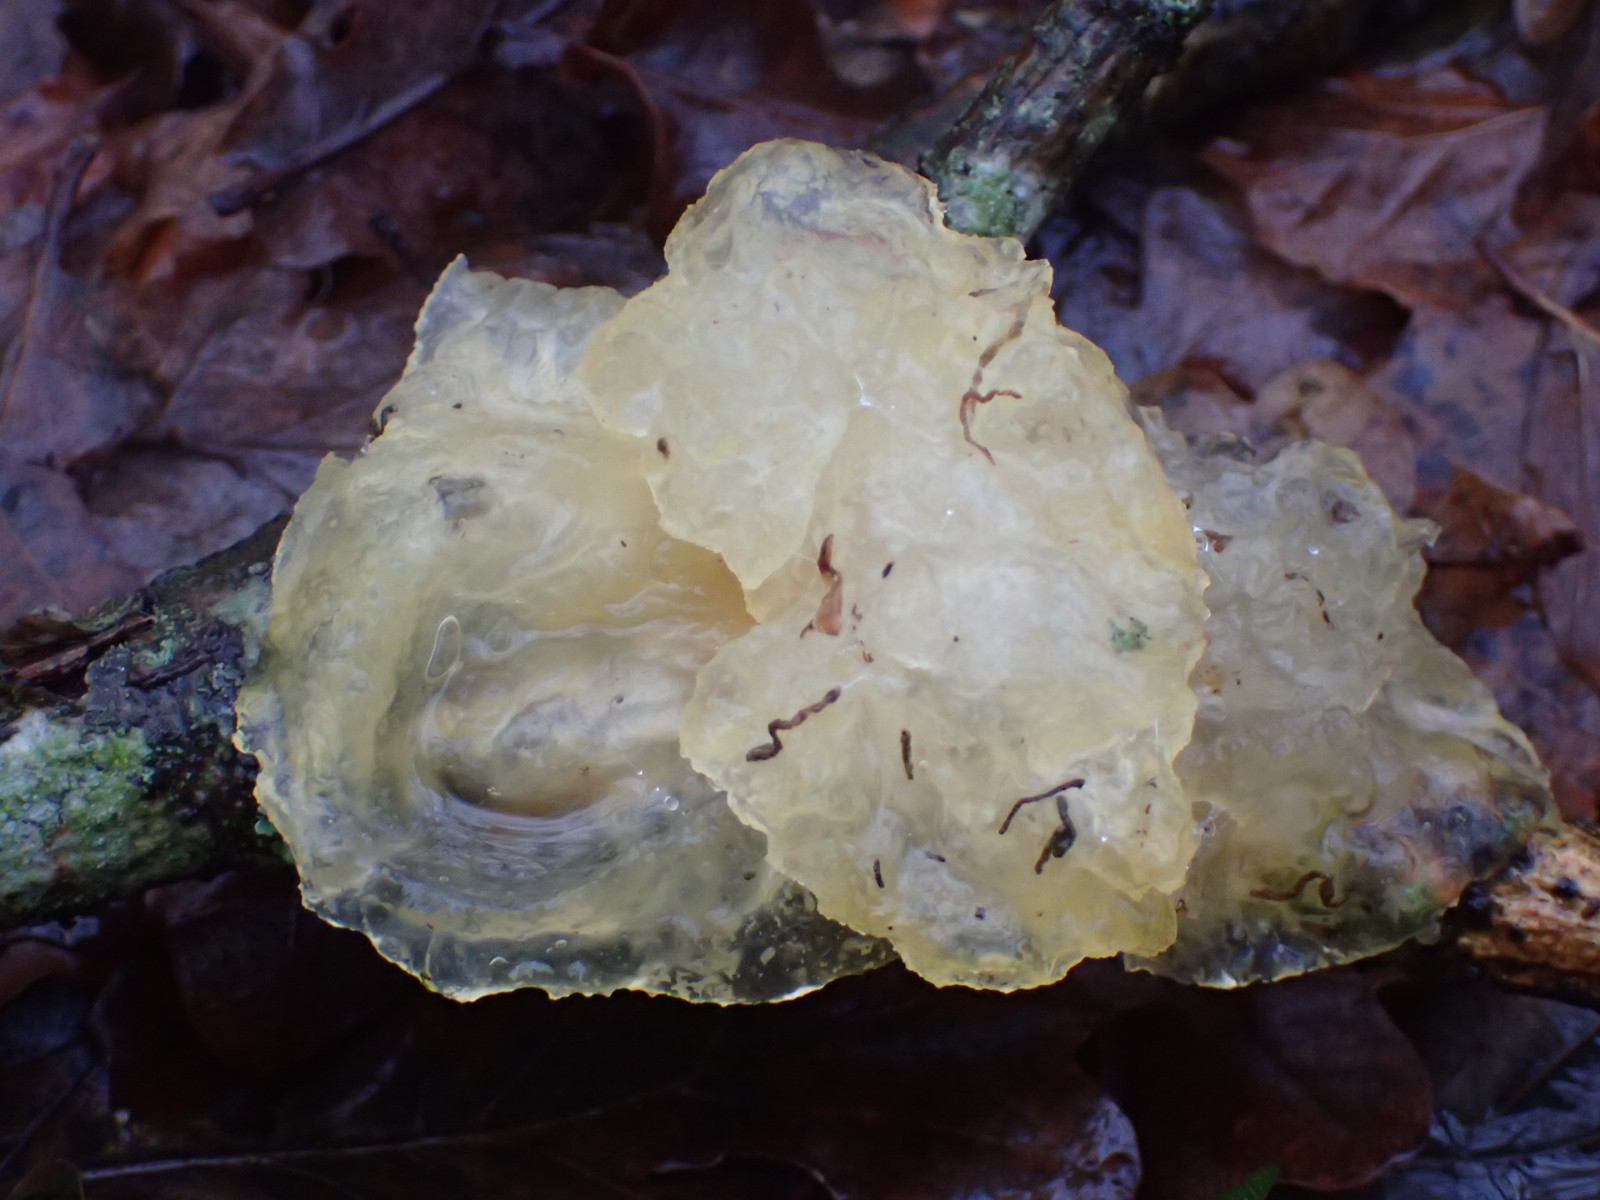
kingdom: Fungi
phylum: Basidiomycota
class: Tremellomycetes
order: Tremellales
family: Tremellaceae
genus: Tremella
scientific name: Tremella mesenterica
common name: gul bævresvamp
